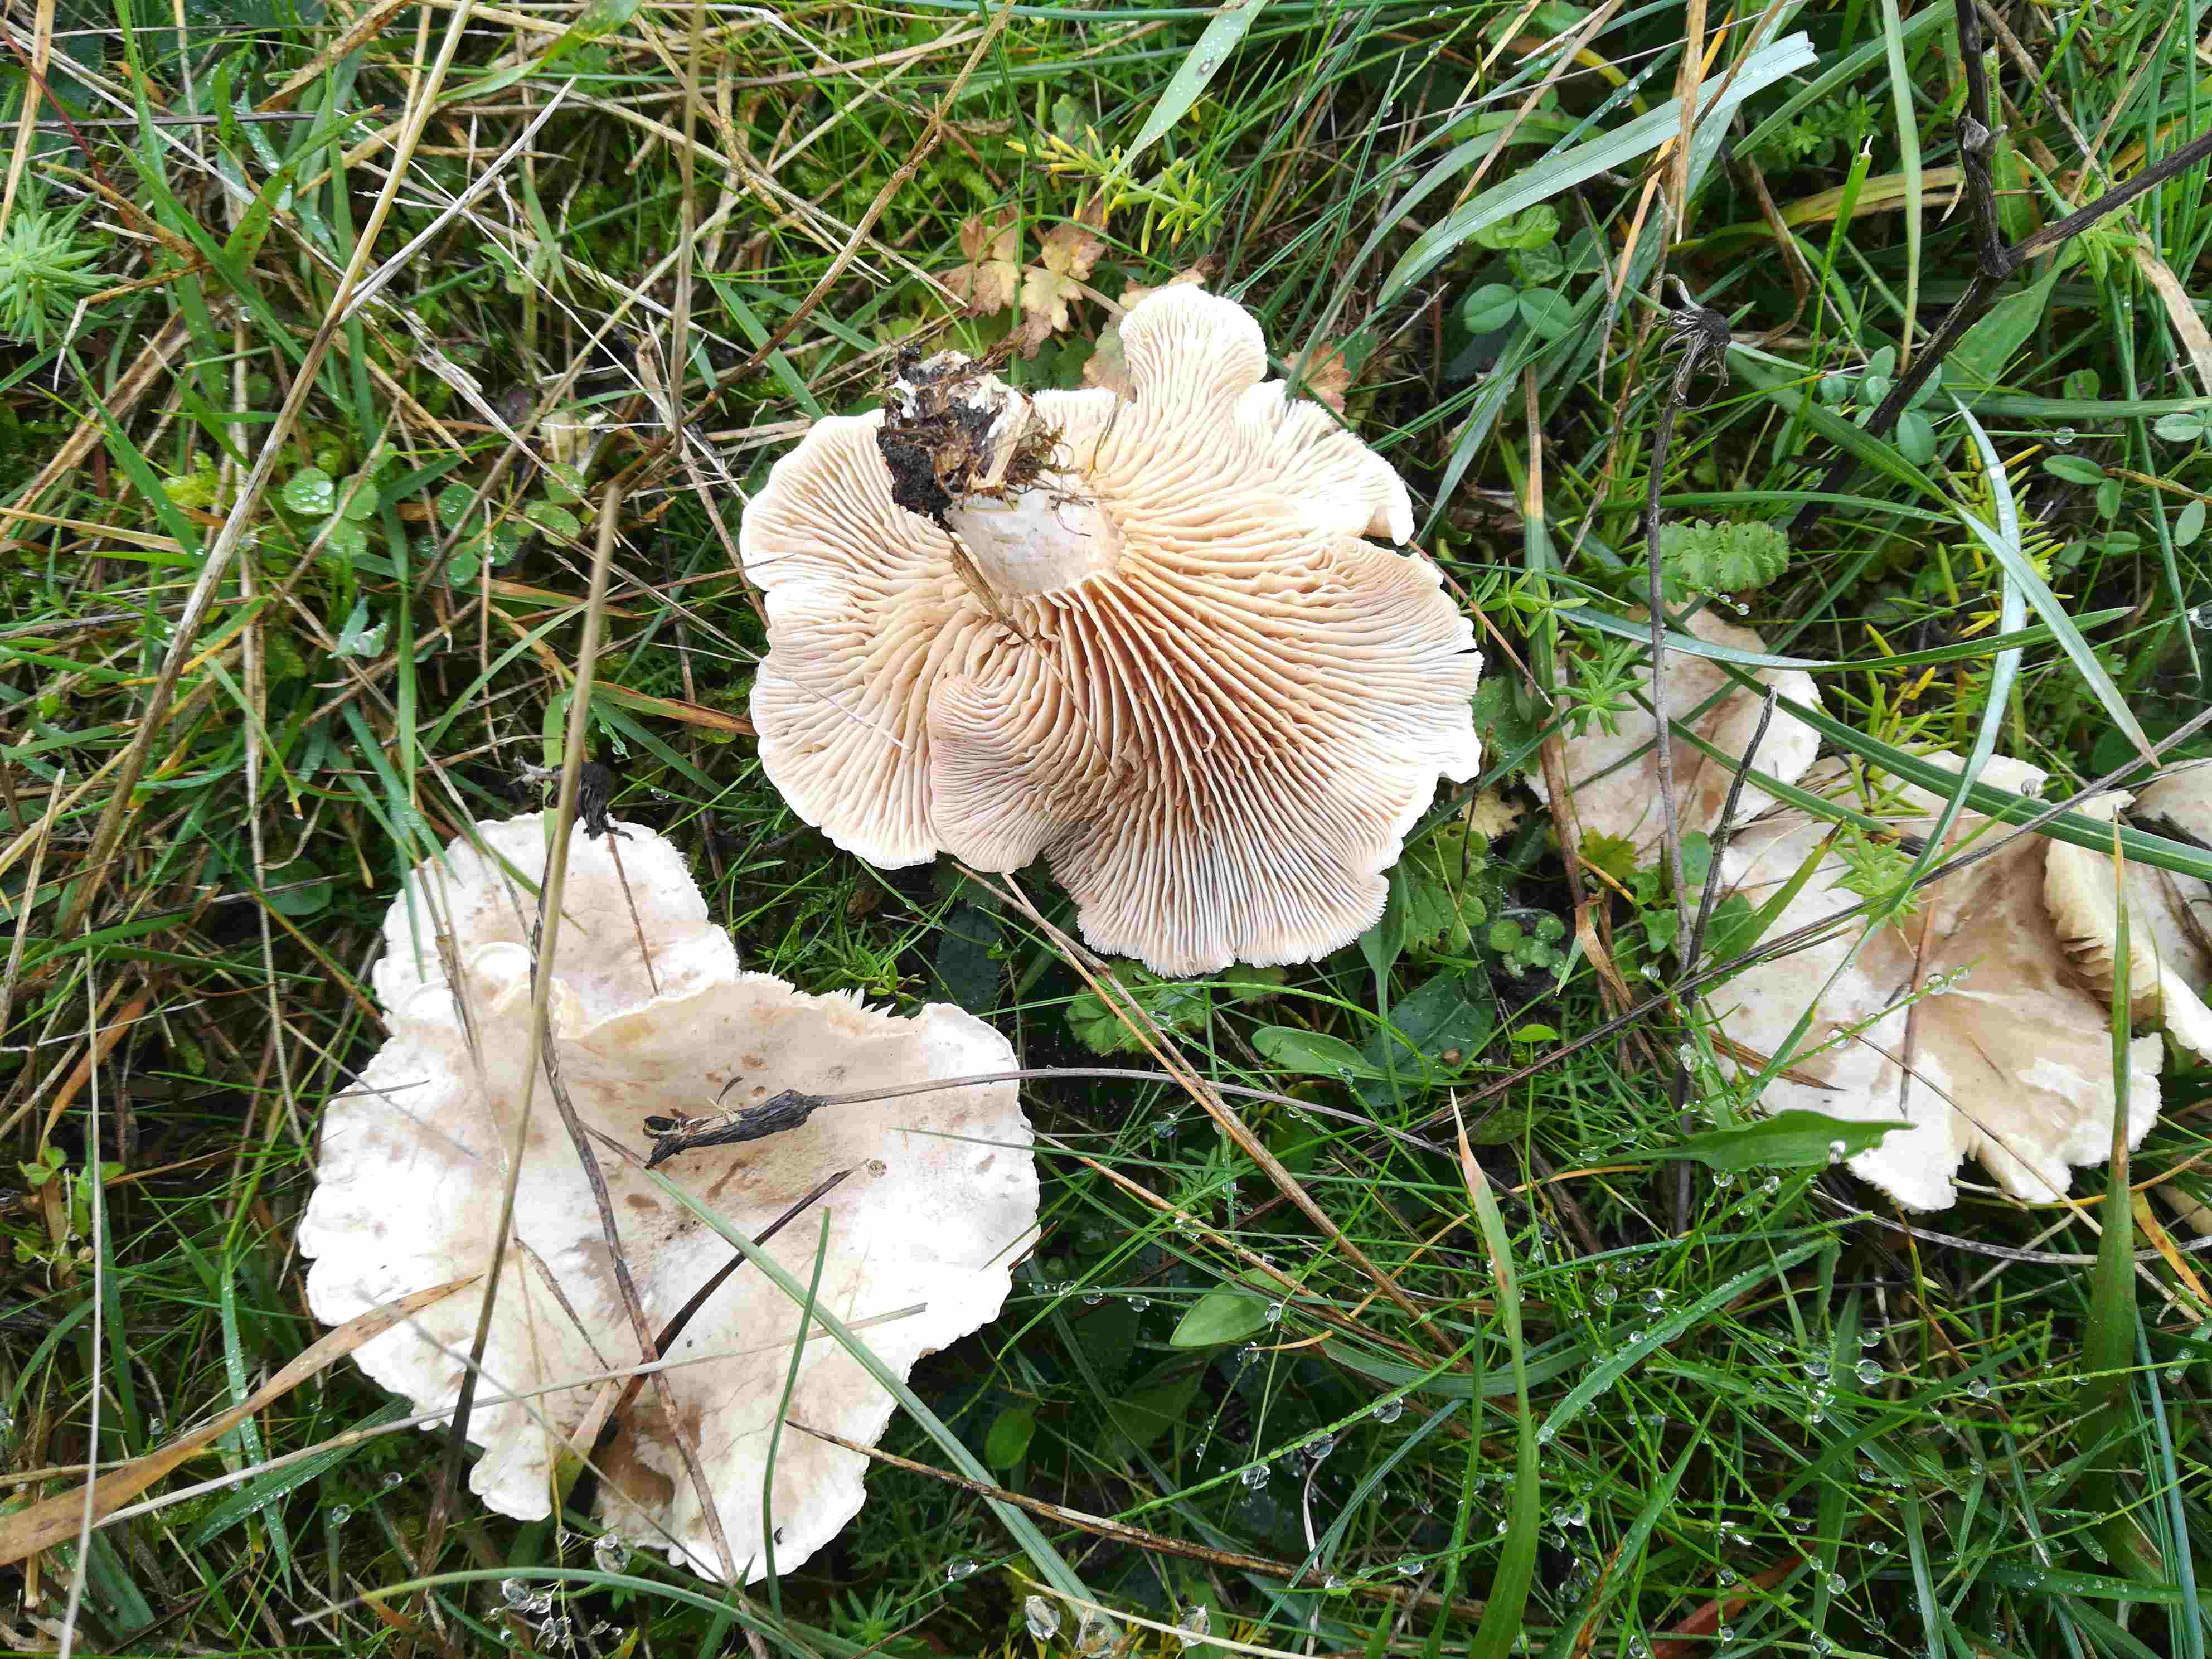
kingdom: Fungi
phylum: Basidiomycota
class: Agaricomycetes
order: Agaricales
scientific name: Agaricales
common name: champignonordenen
